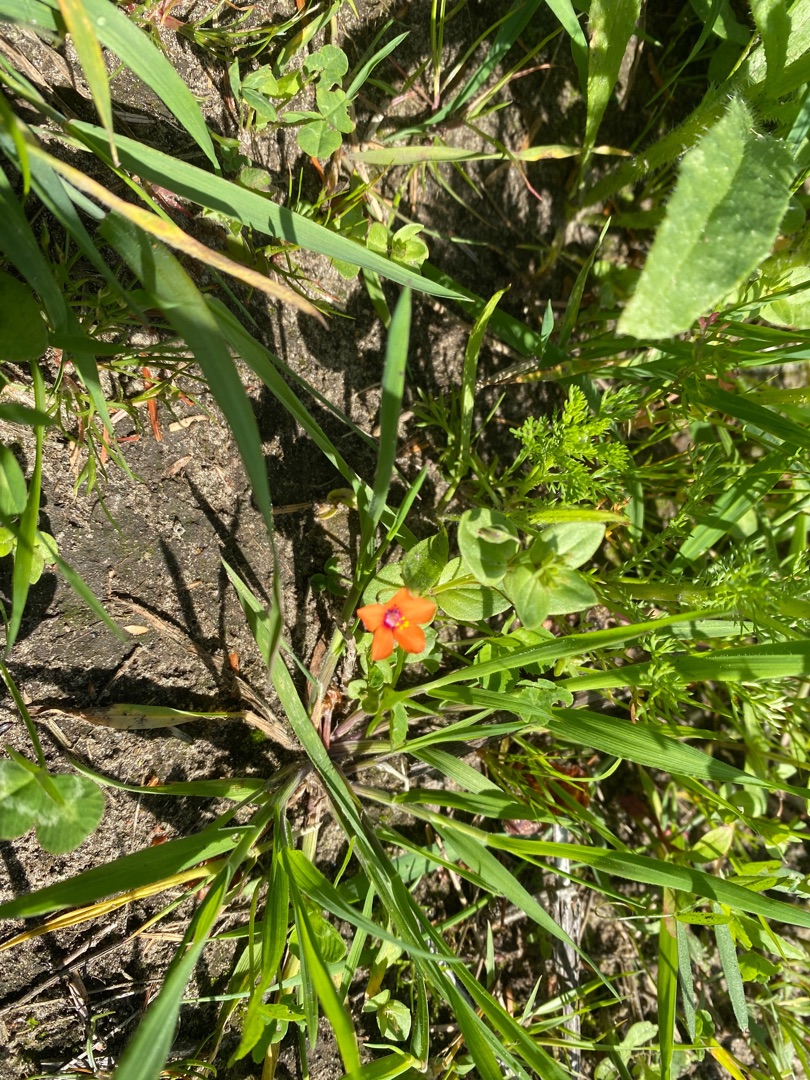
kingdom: Plantae
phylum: Tracheophyta
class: Magnoliopsida
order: Ericales
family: Primulaceae
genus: Lysimachia
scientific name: Lysimachia arvensis
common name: Rød arve
